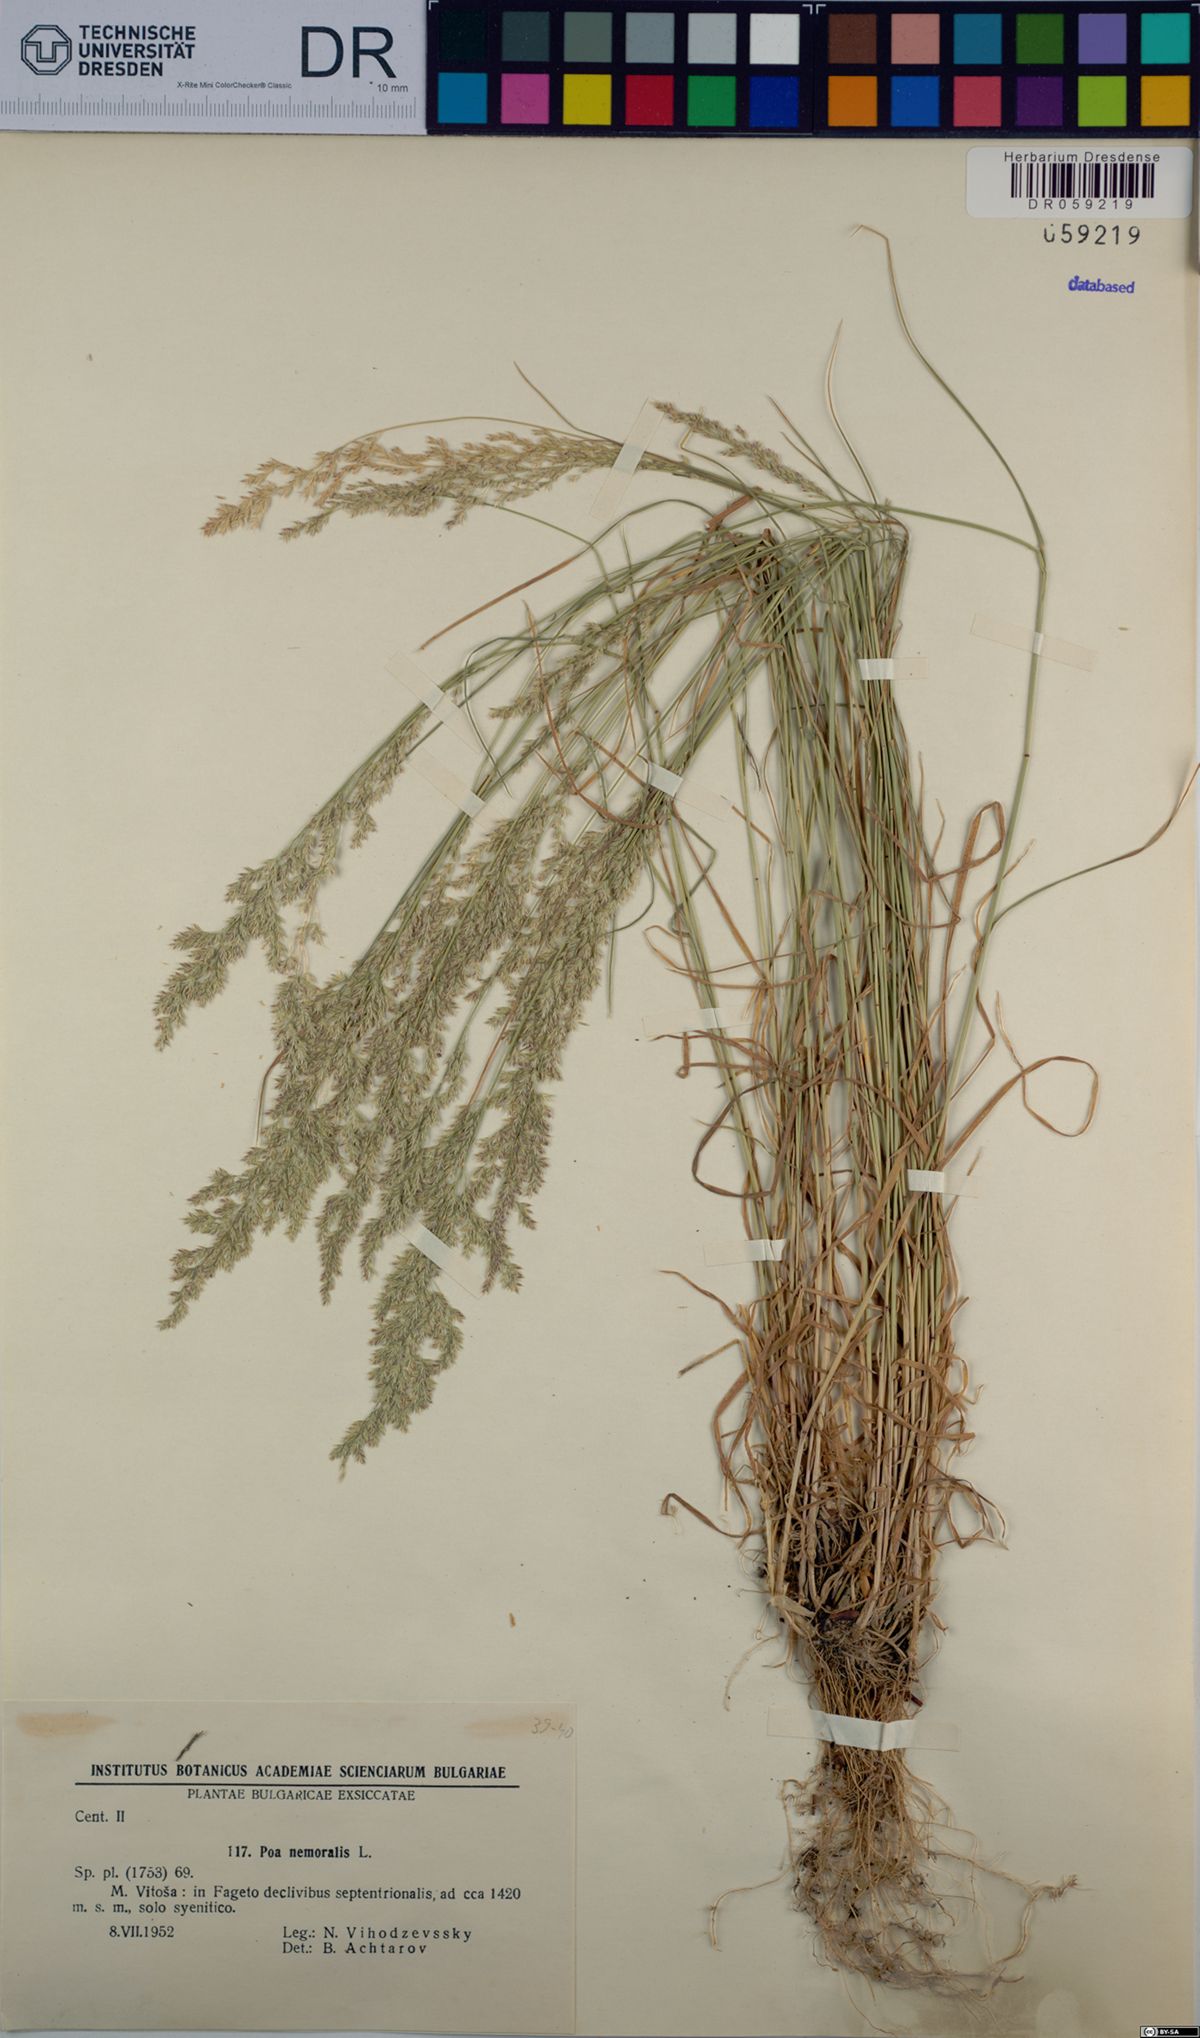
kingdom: Plantae
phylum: Tracheophyta
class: Liliopsida
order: Poales
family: Poaceae
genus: Poa
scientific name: Poa nemoralis
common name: Wood bluegrass
